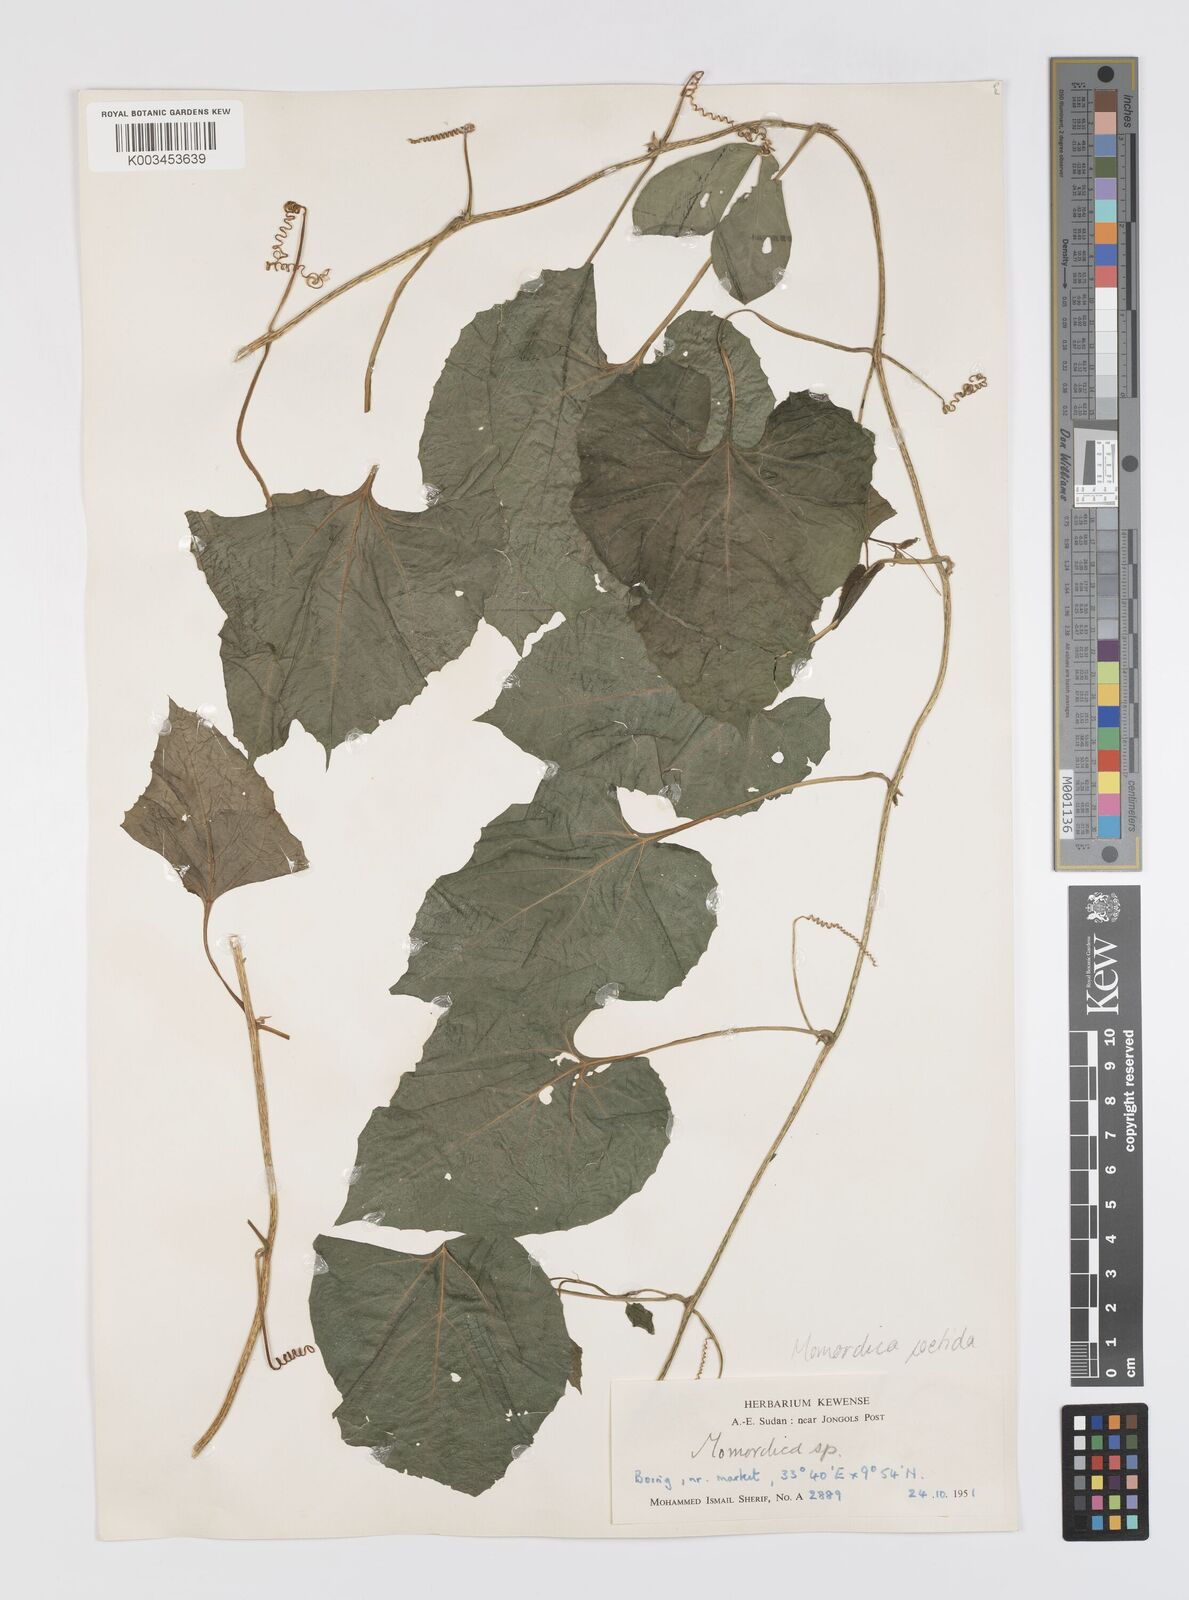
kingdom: Plantae
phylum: Tracheophyta
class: Magnoliopsida
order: Cucurbitales
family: Cucurbitaceae
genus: Momordica
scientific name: Momordica foetida
